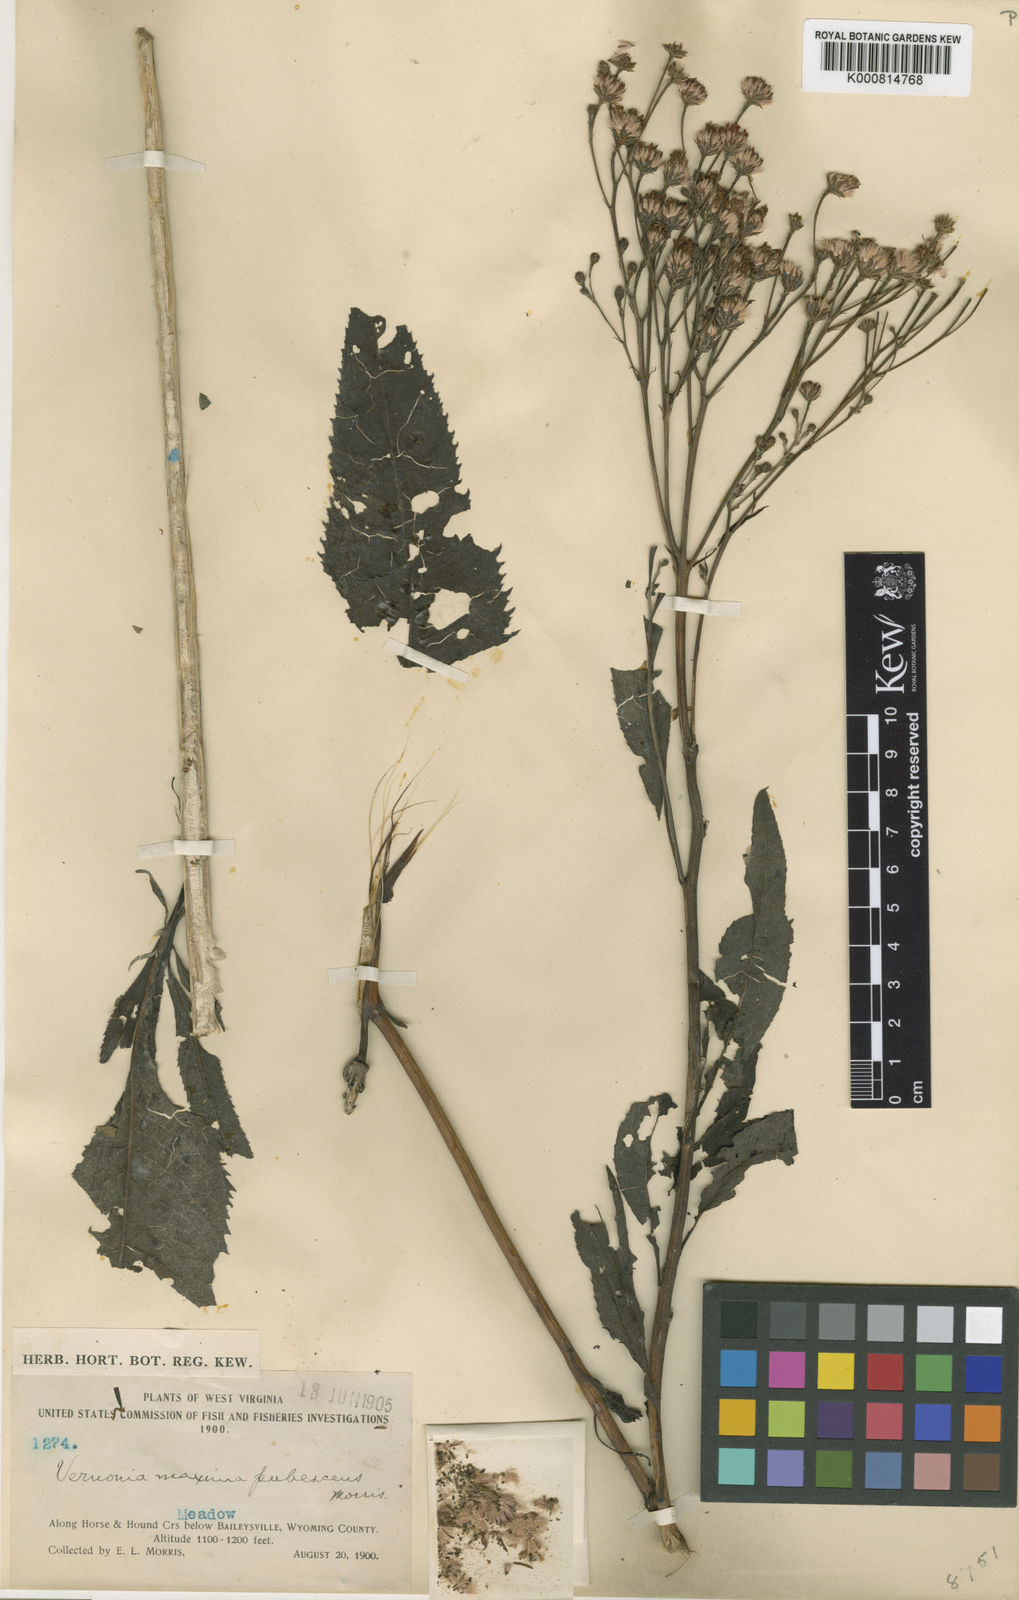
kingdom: Plantae
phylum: Tracheophyta
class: Magnoliopsida
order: Asterales
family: Asteraceae
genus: Vernonia
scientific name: Vernonia gigantea
